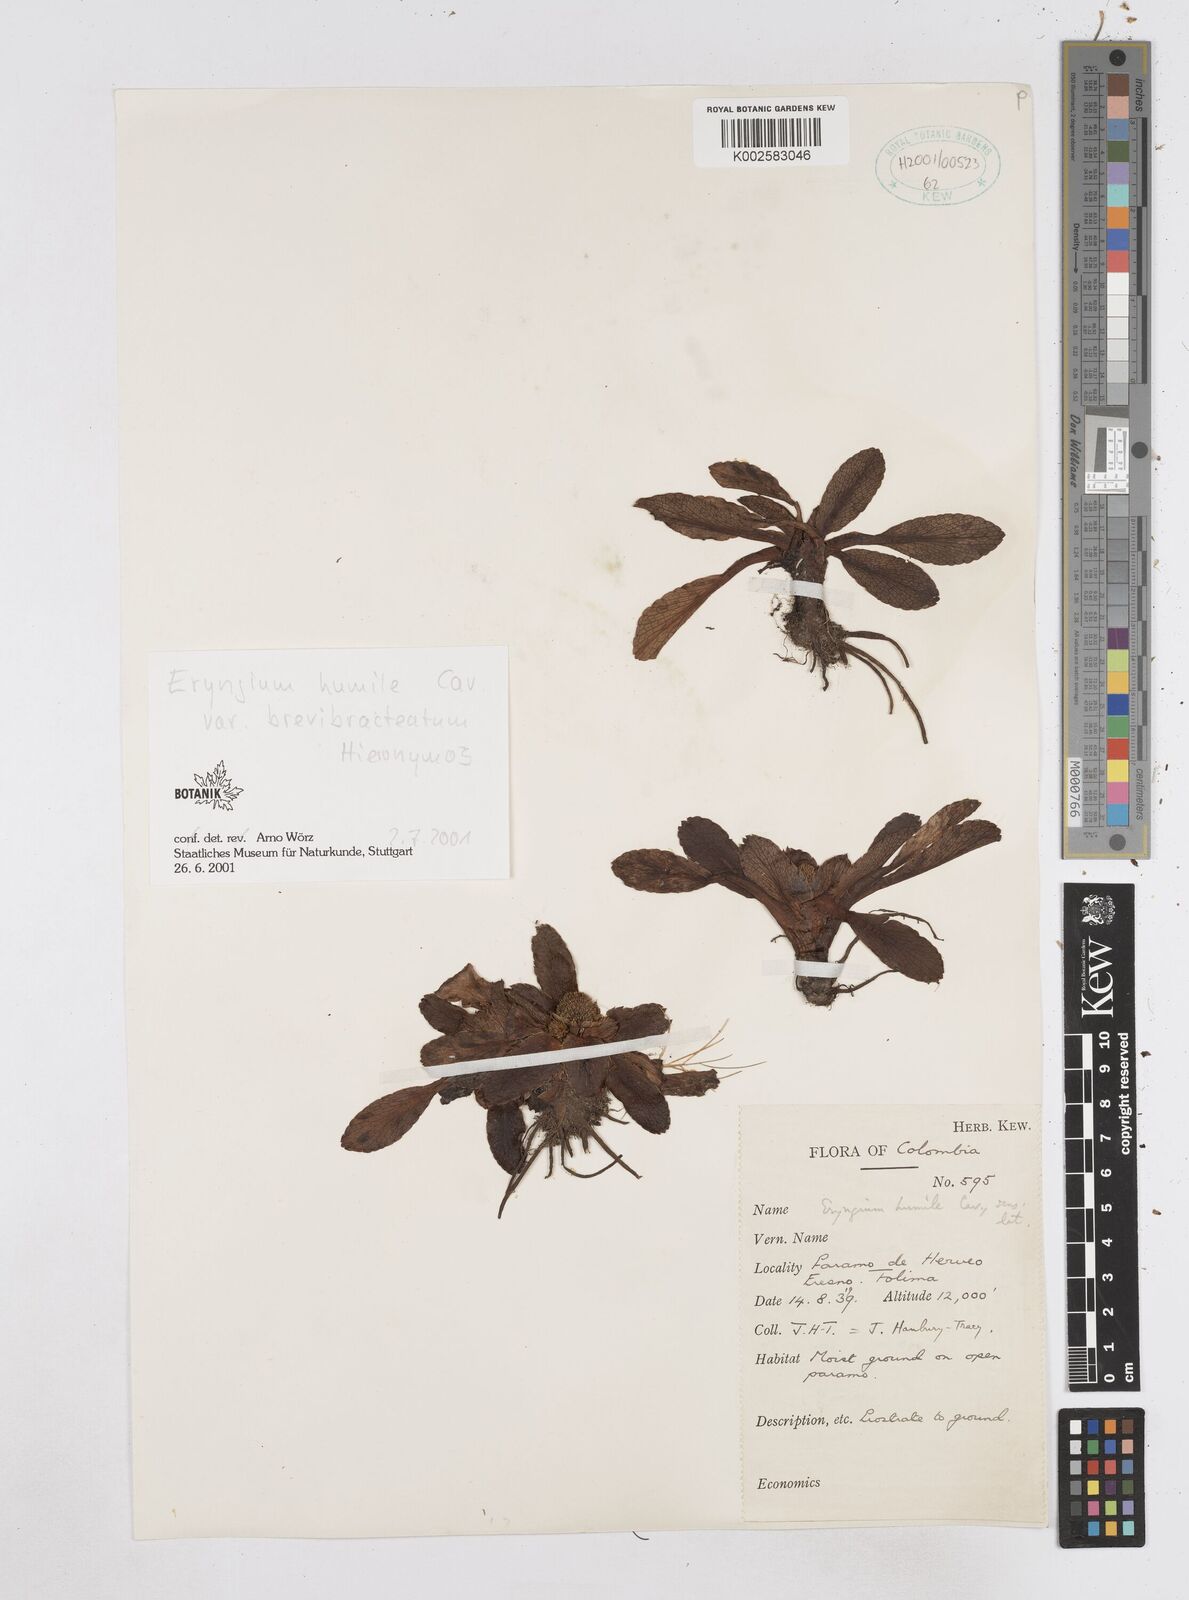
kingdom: Plantae
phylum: Tracheophyta
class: Magnoliopsida
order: Apiales
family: Apiaceae
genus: Eryngium
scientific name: Eryngium humile
